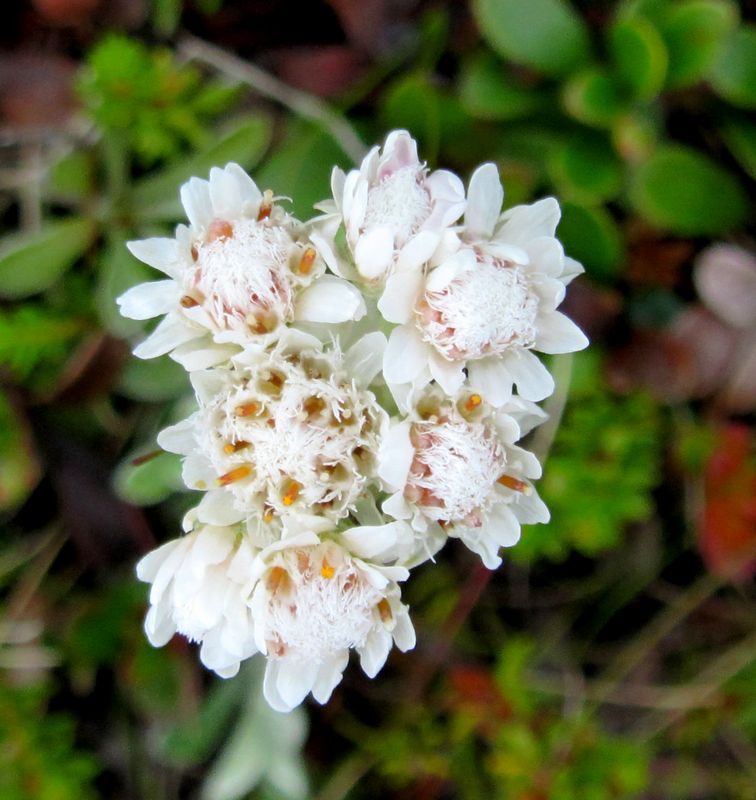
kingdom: Plantae
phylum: Tracheophyta
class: Magnoliopsida
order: Asterales
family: Asteraceae
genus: Antennaria
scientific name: Antennaria dioica
